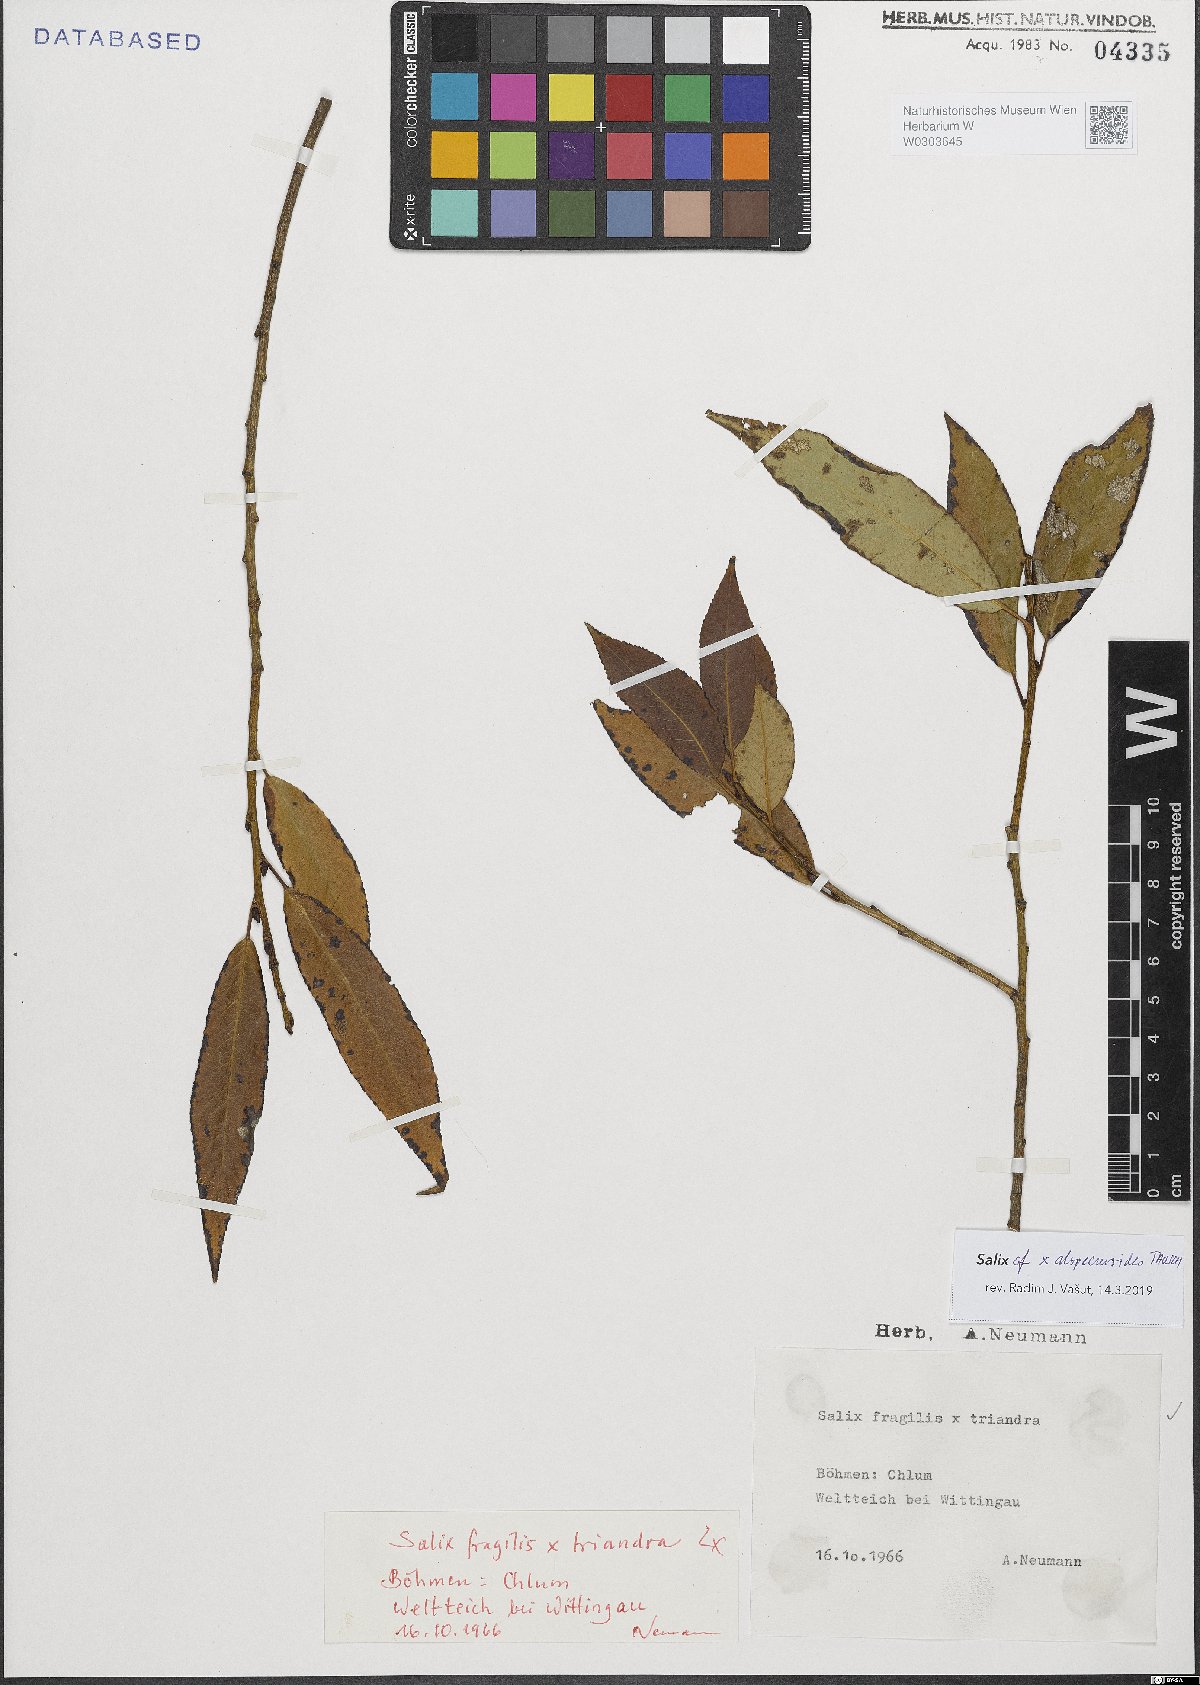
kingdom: Plantae
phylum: Tracheophyta
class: Magnoliopsida
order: Malpighiales
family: Salicaceae
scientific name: Salicaceae
